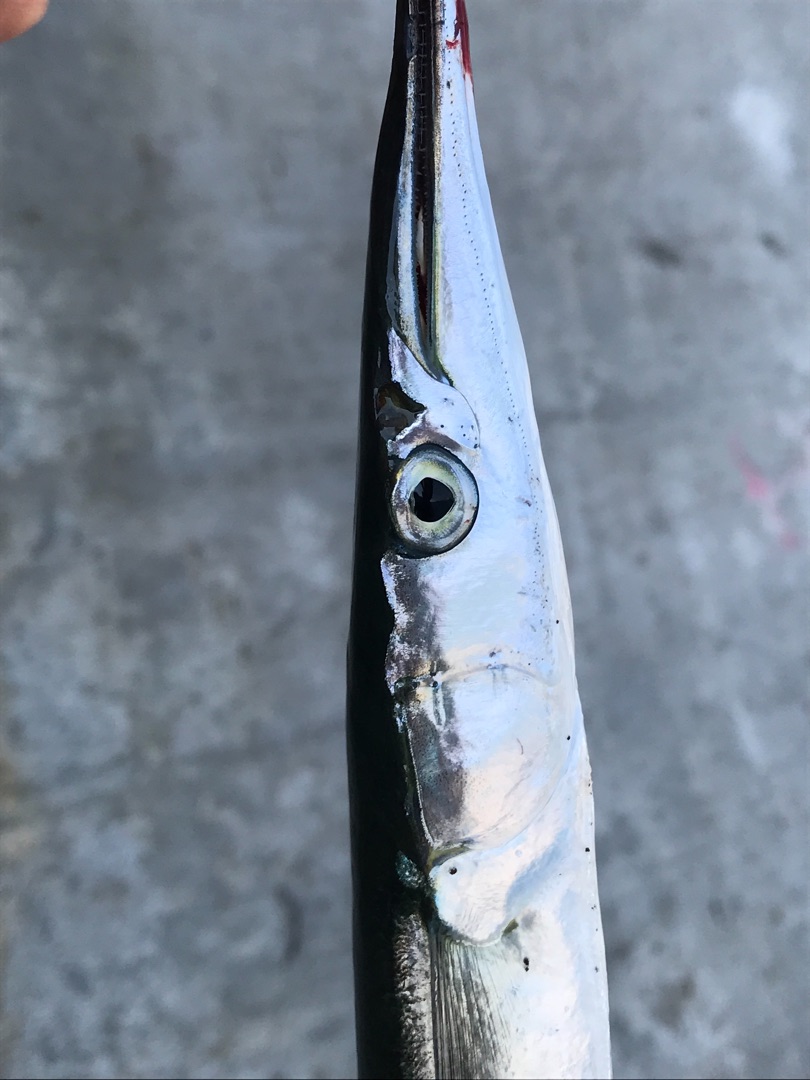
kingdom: Animalia
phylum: Chordata
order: Beloniformes
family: Belonidae
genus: Belone
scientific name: Belone belone
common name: Hornfisk
